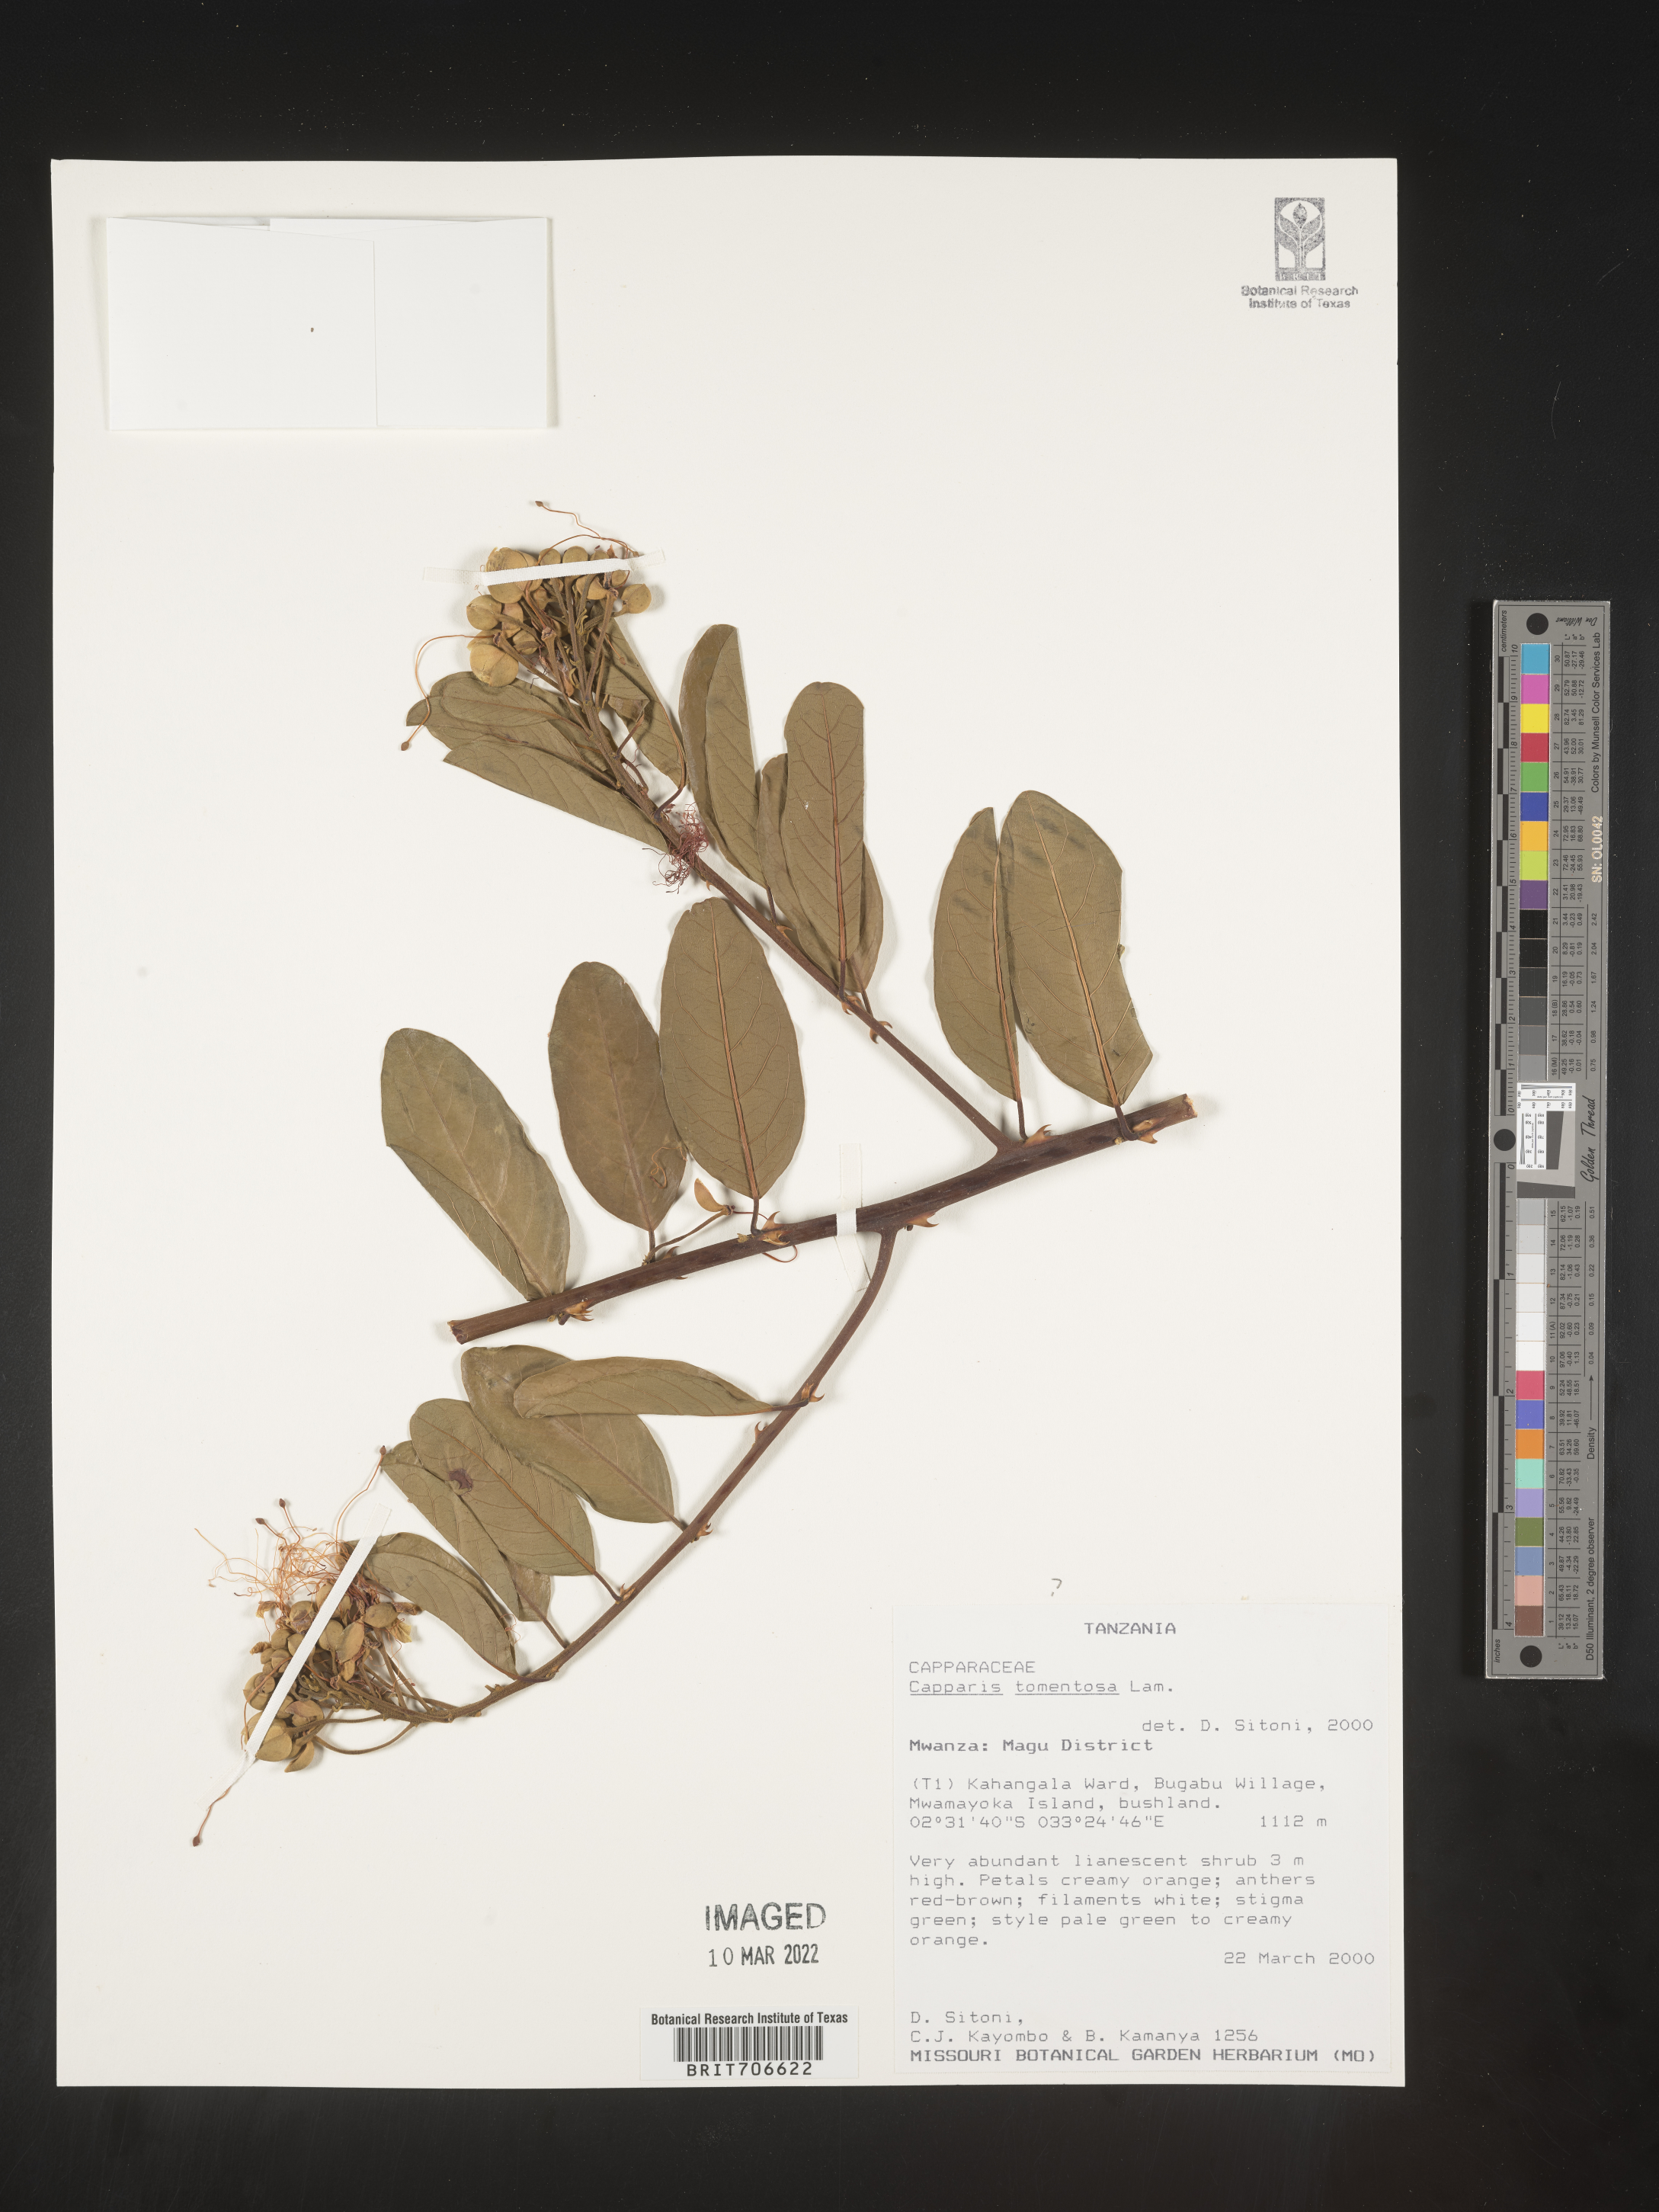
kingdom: Plantae
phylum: Tracheophyta
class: Magnoliopsida
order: Brassicales
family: Capparaceae
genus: Capparis
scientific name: Capparis
